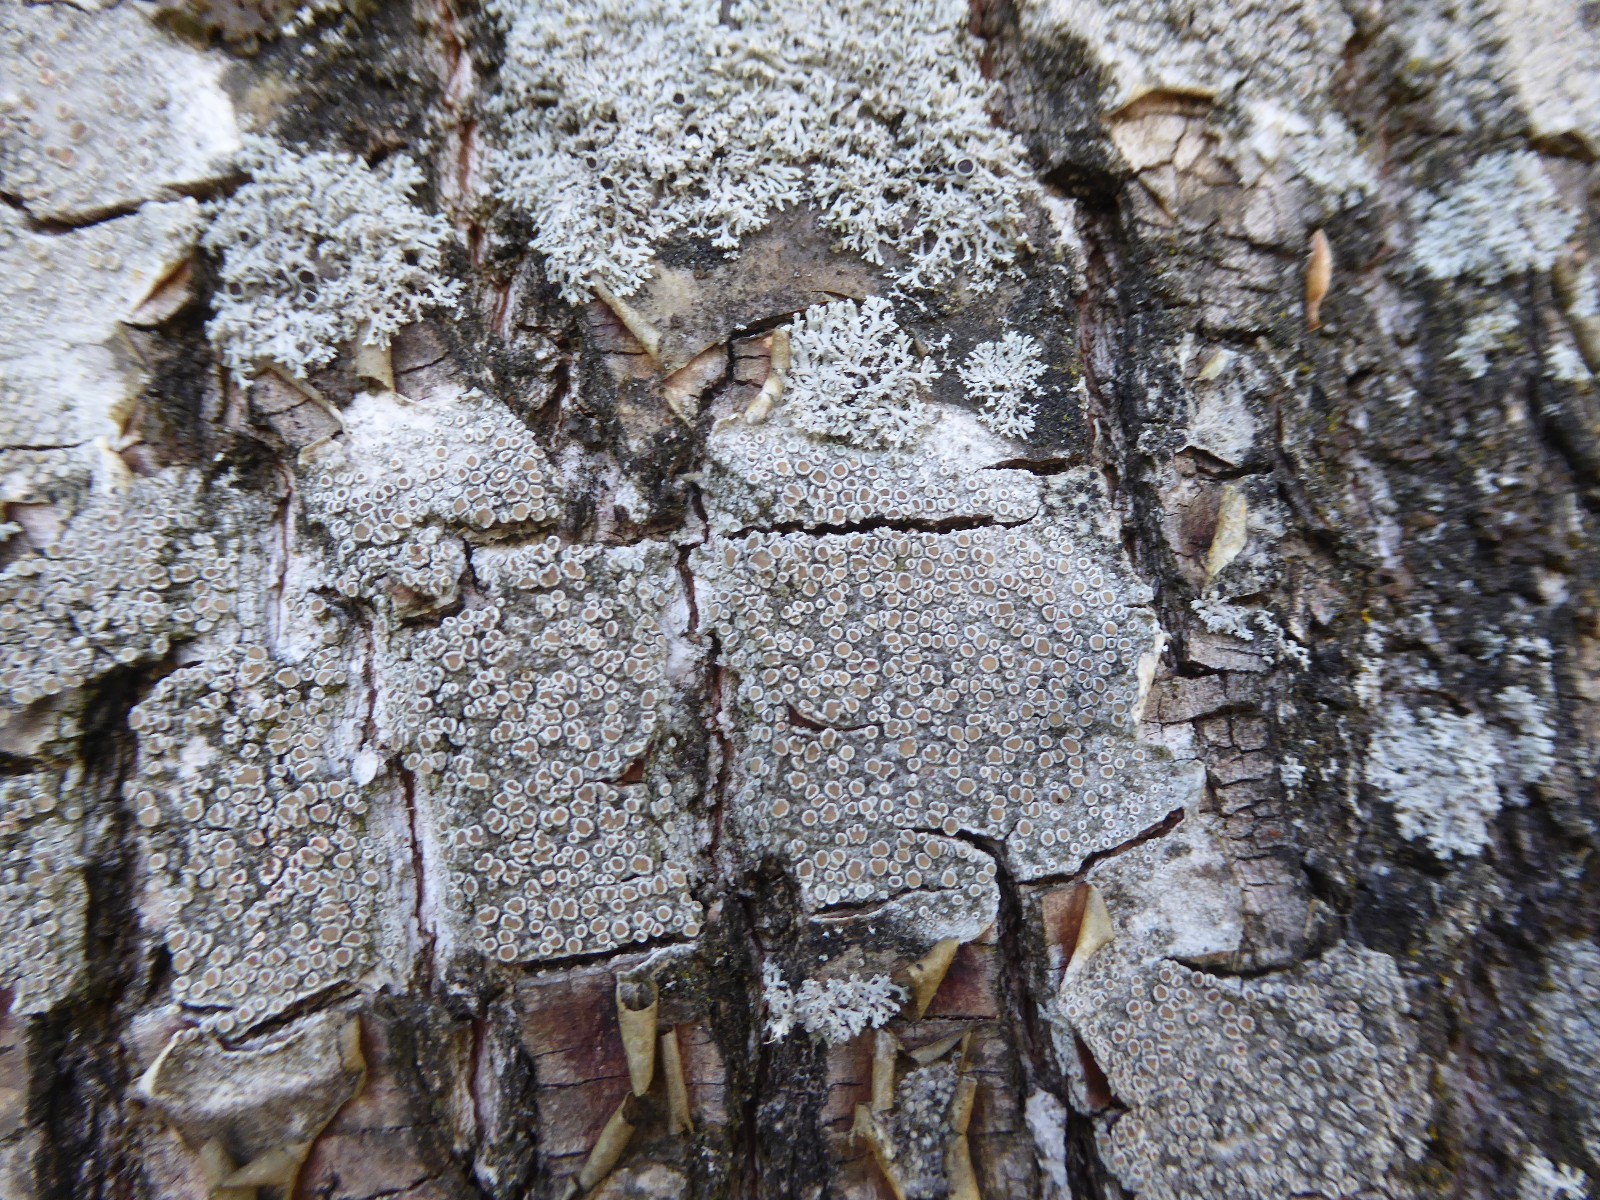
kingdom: Fungi
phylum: Ascomycota
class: Lecanoromycetes
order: Lecanorales
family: Lecanoraceae
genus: Lecanora
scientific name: Lecanora chlarotera
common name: brun kantskivelav
